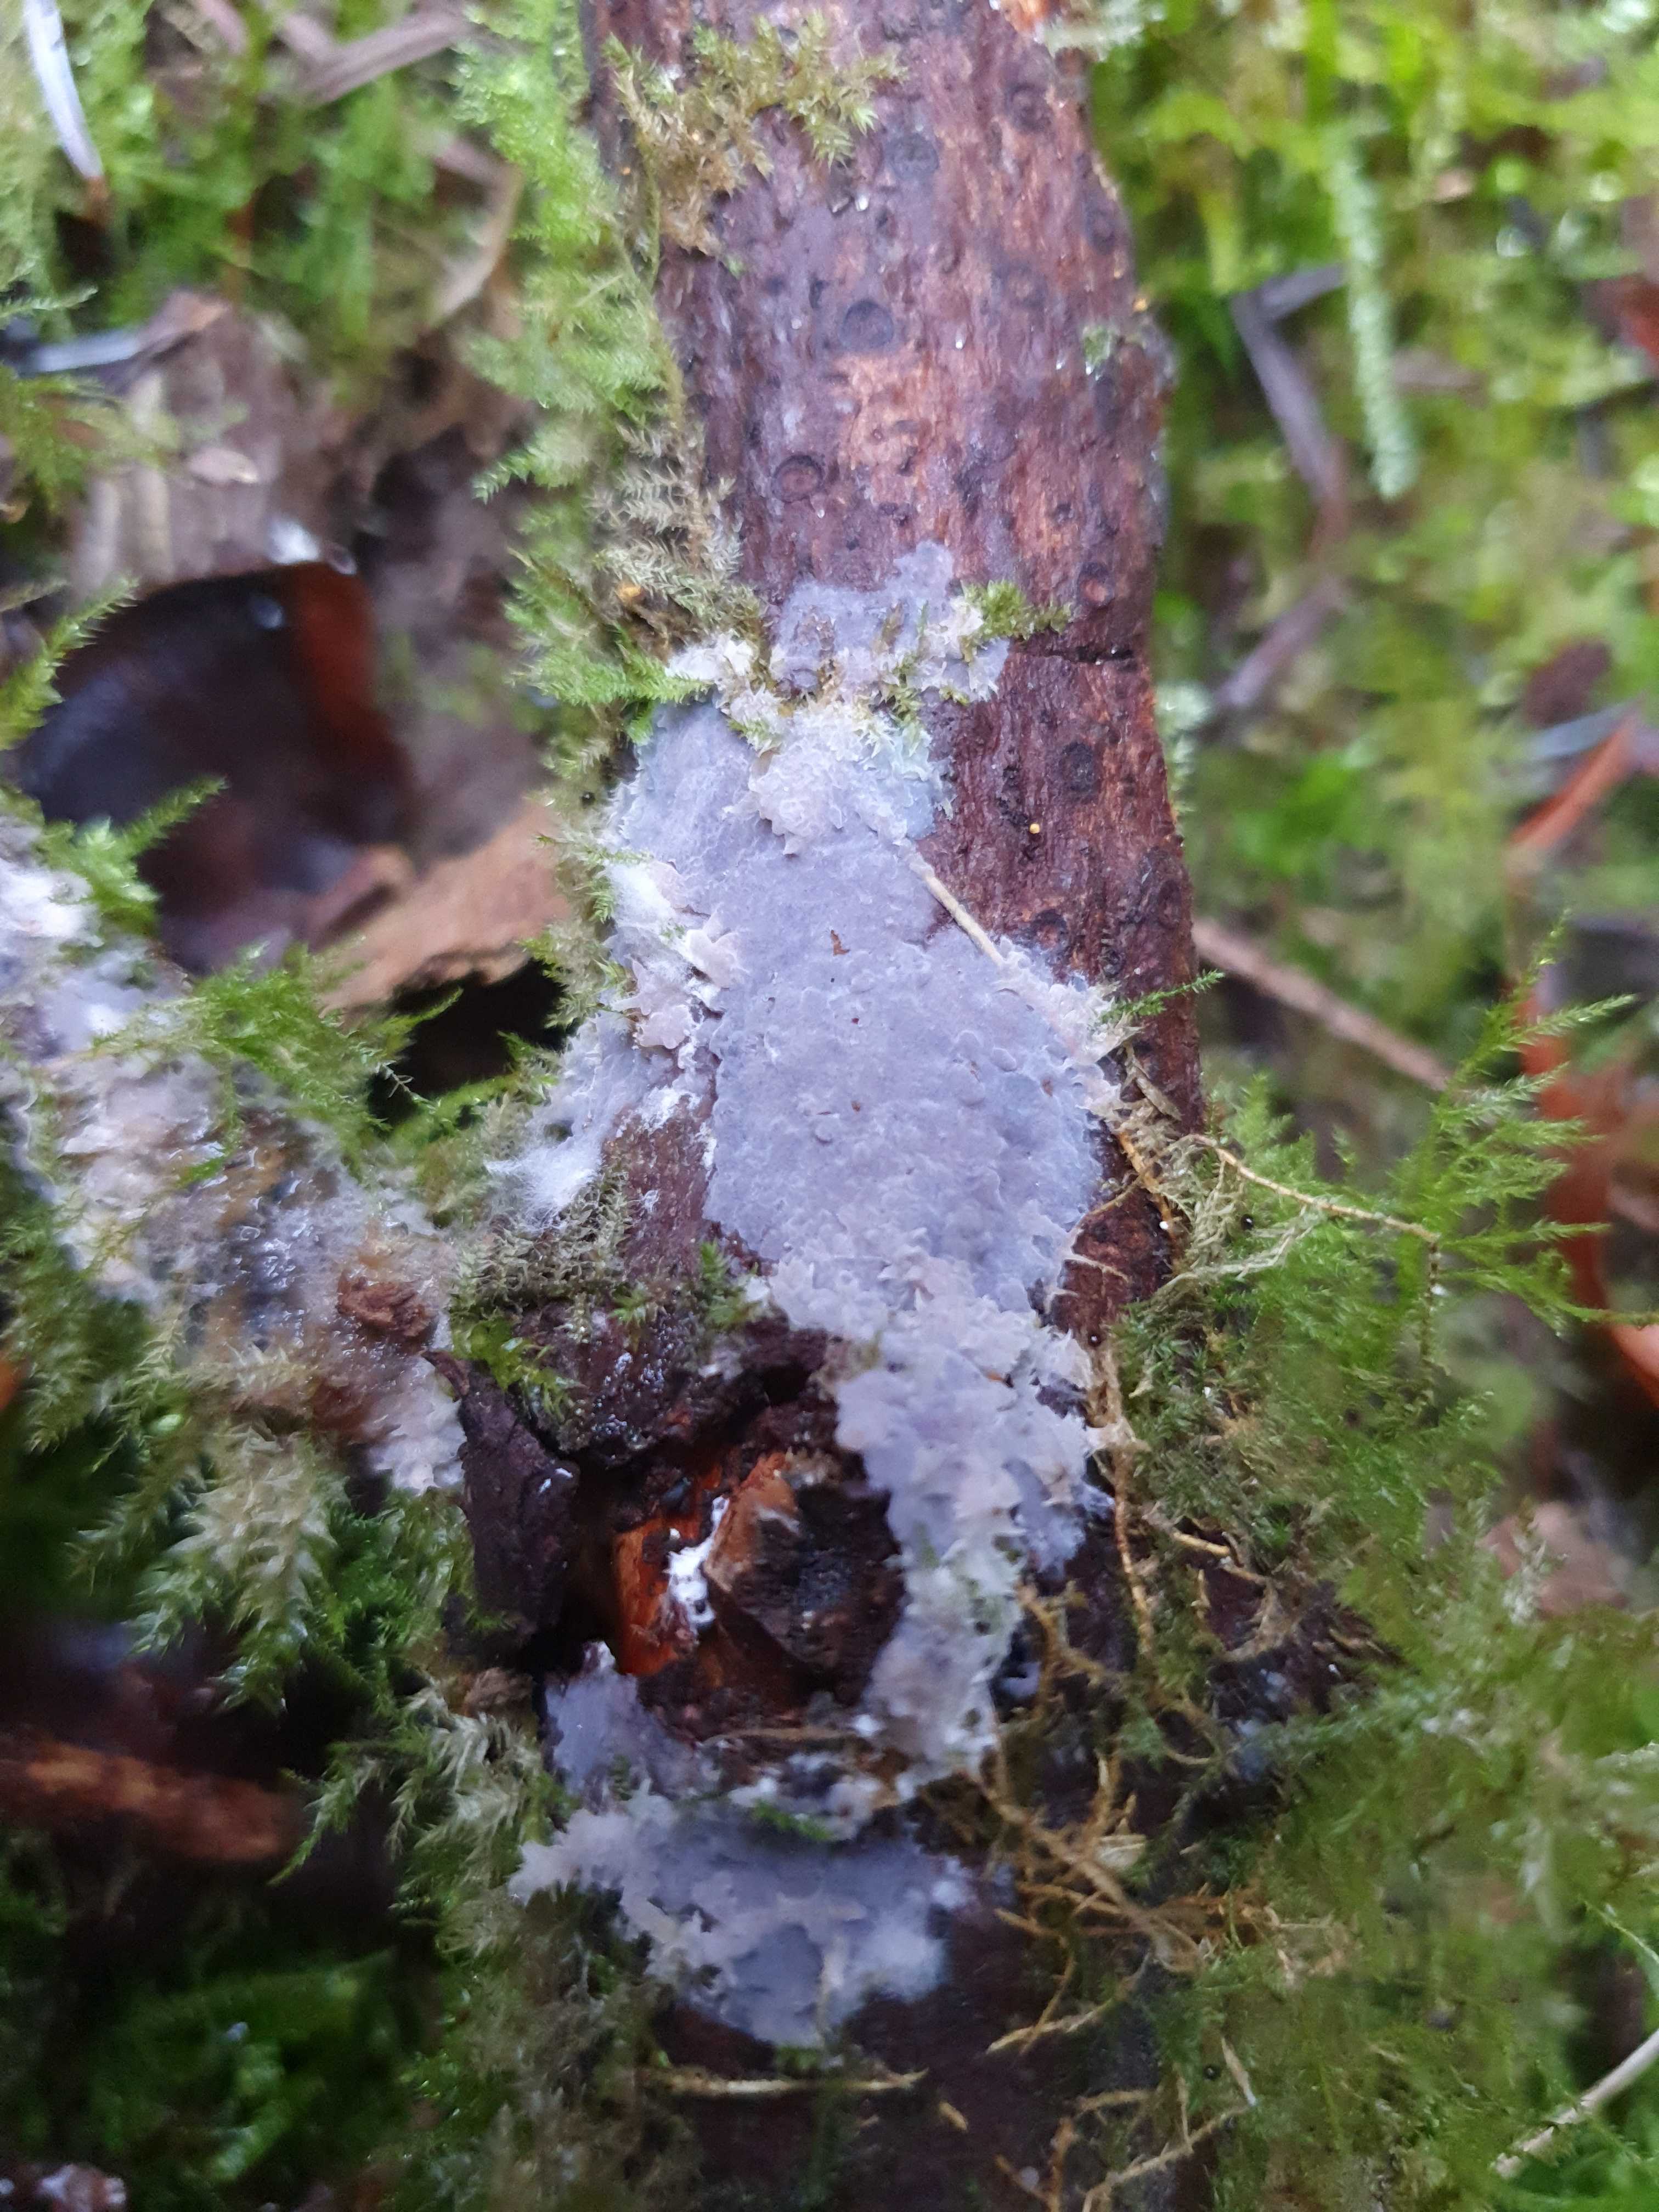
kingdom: Fungi
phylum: Basidiomycota
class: Agaricomycetes
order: Sebacinales
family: Sebacinaceae
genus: Sebacina
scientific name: Sebacina grisea
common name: blågrå bævrehinde
